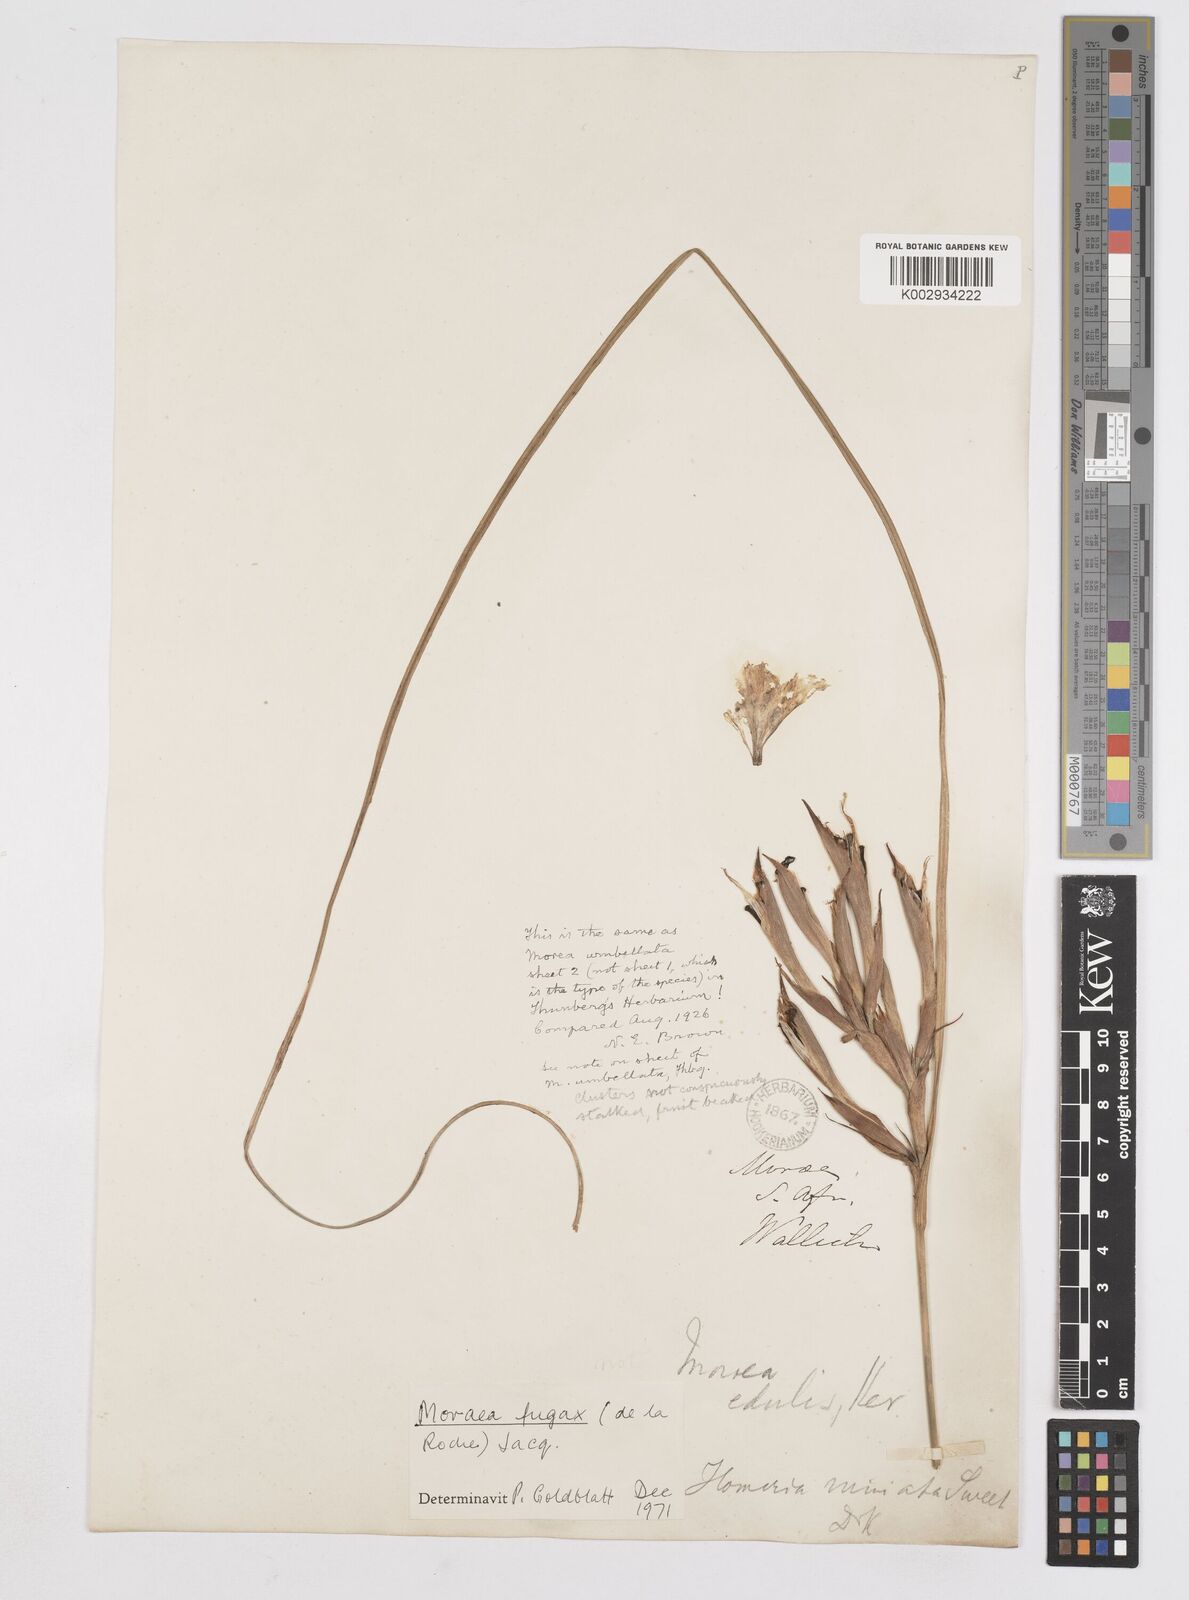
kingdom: Plantae
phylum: Tracheophyta
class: Liliopsida
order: Asparagales
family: Iridaceae
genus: Moraea
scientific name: Moraea fugax
